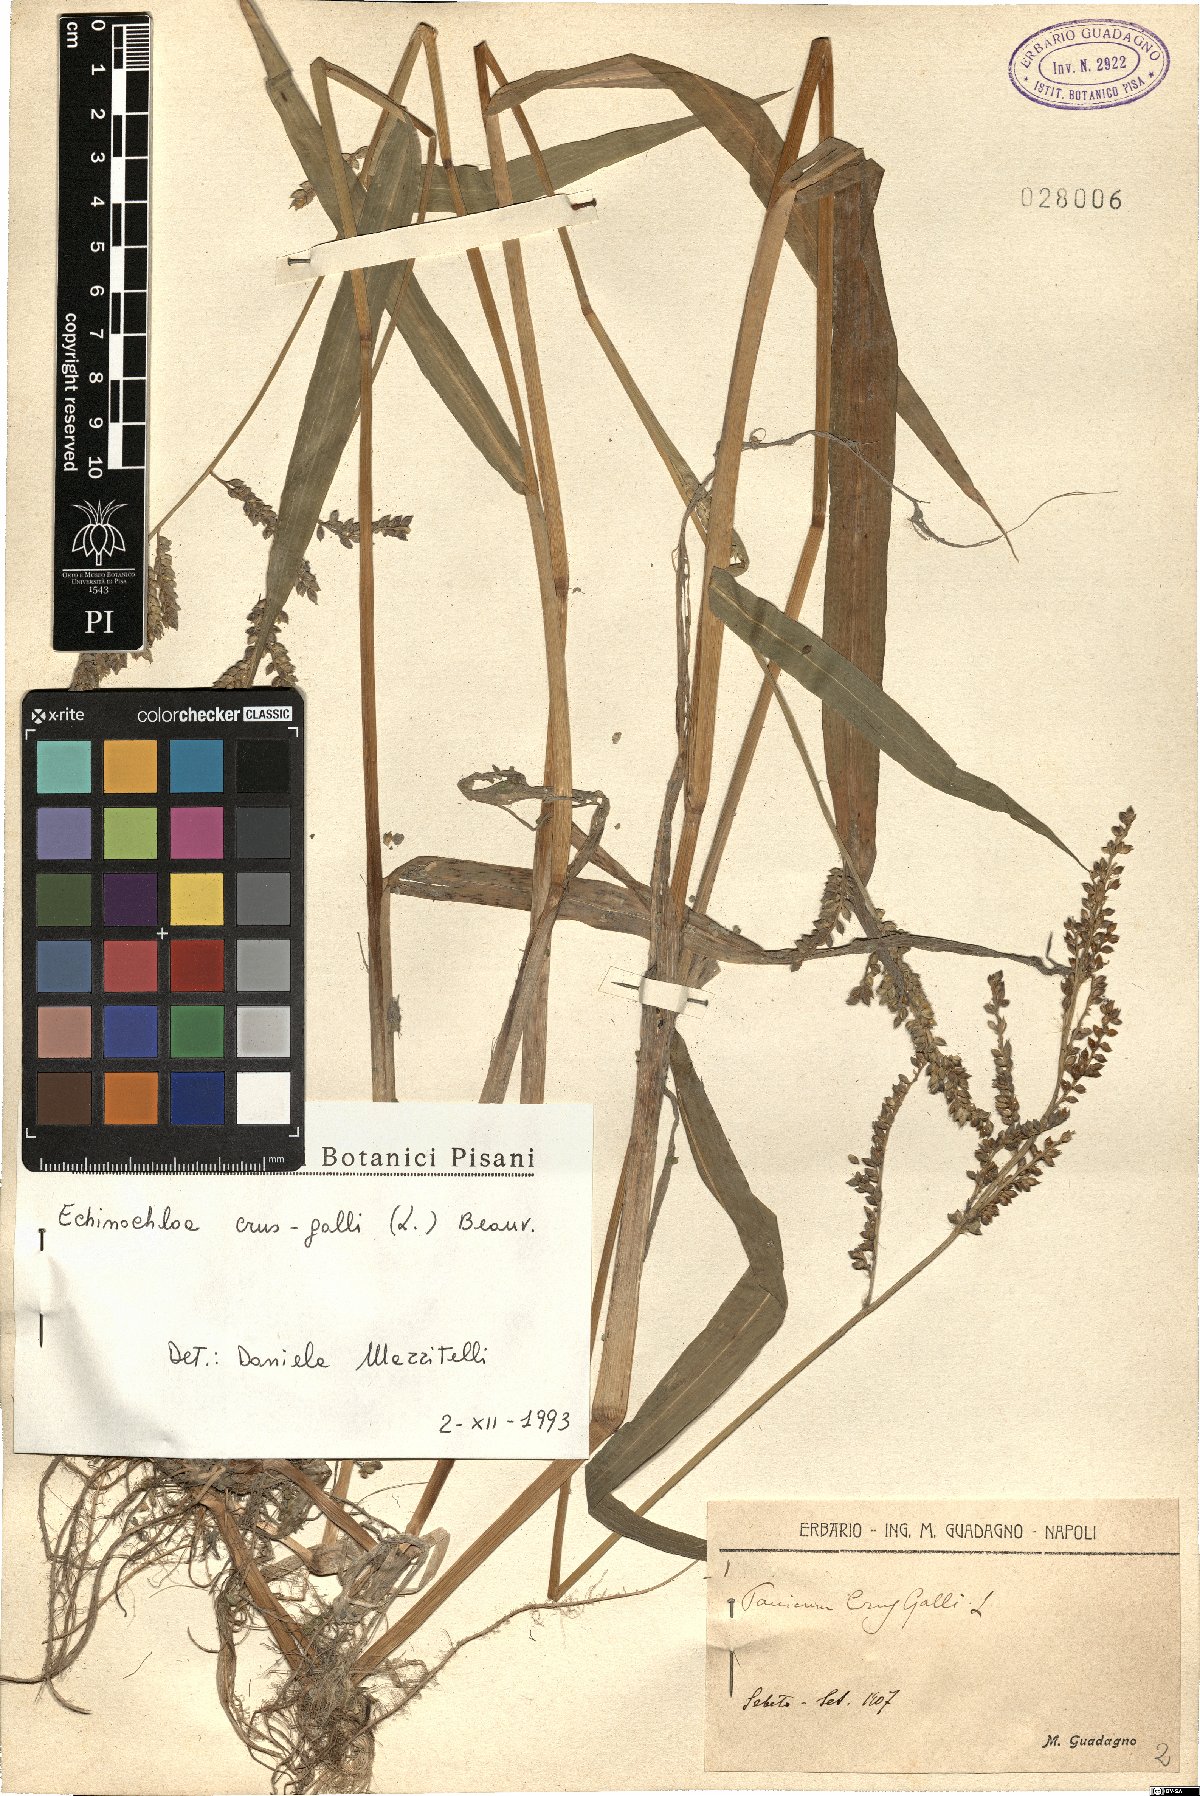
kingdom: Plantae
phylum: Tracheophyta
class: Liliopsida
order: Poales
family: Poaceae
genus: Echinochloa
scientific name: Echinochloa crus-galli
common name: Cockspur
